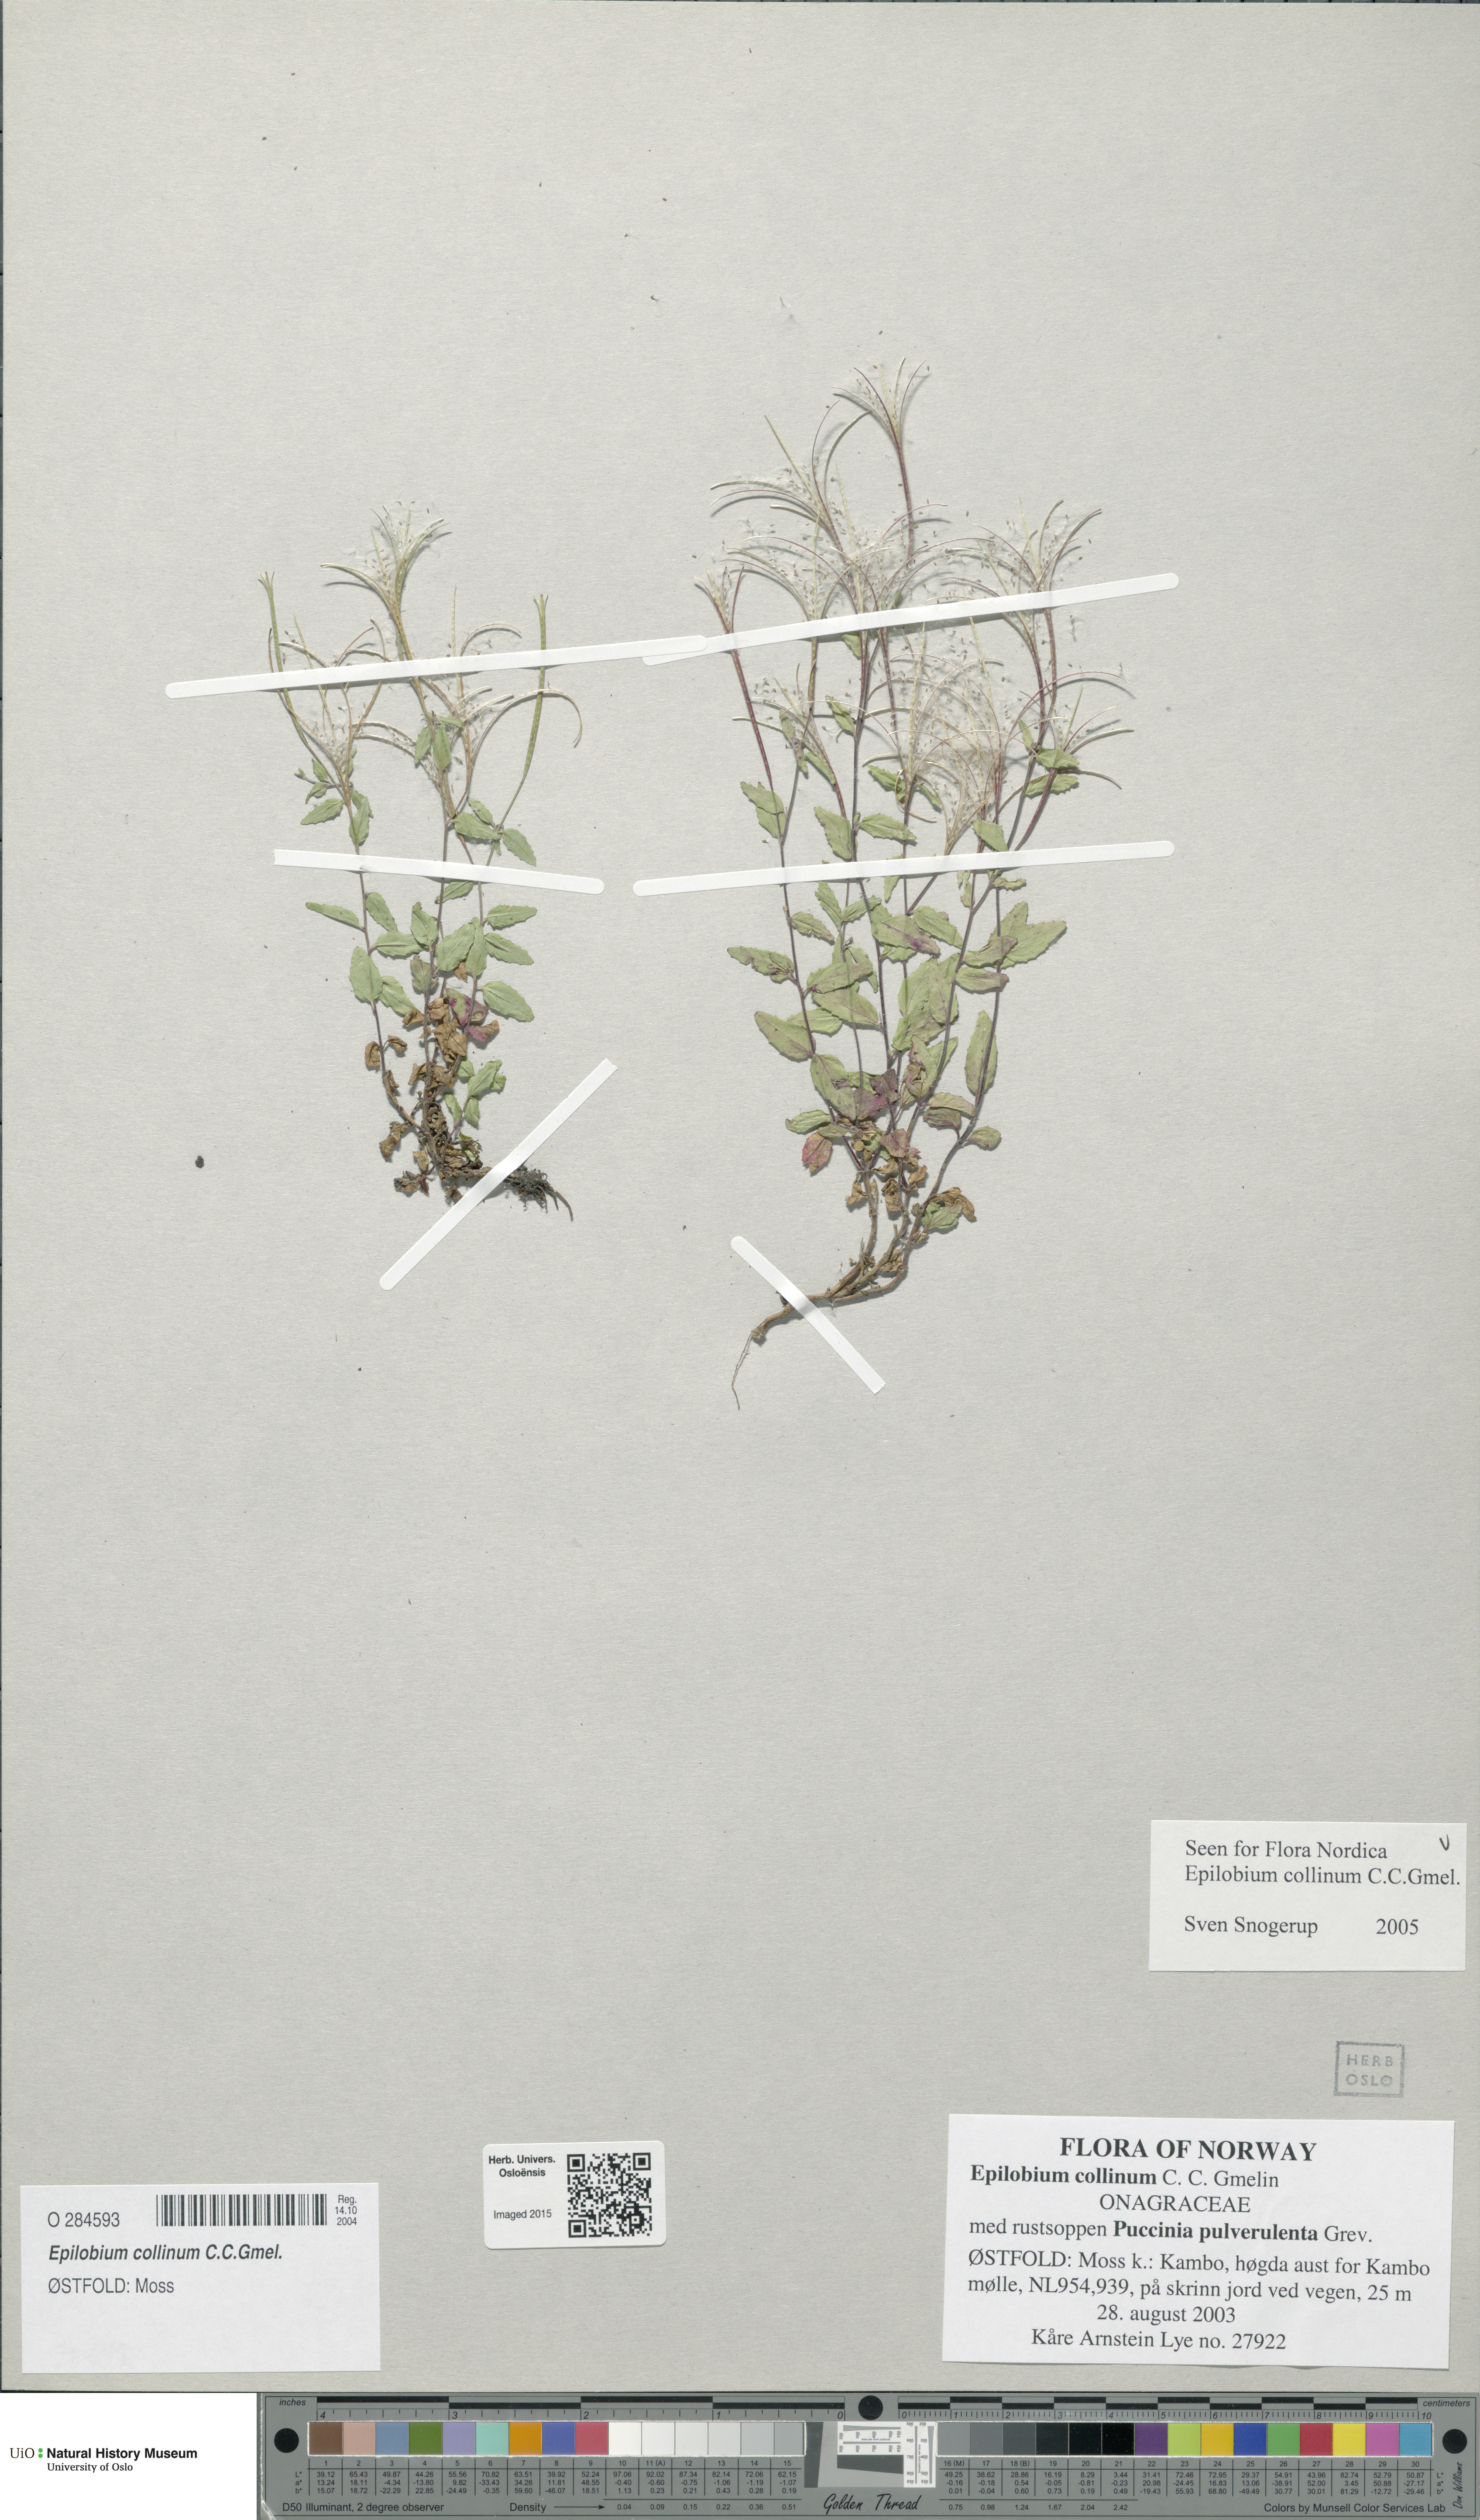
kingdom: Plantae
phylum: Tracheophyta
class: Magnoliopsida
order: Myrtales
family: Onagraceae
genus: Epilobium
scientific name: Epilobium collinum
